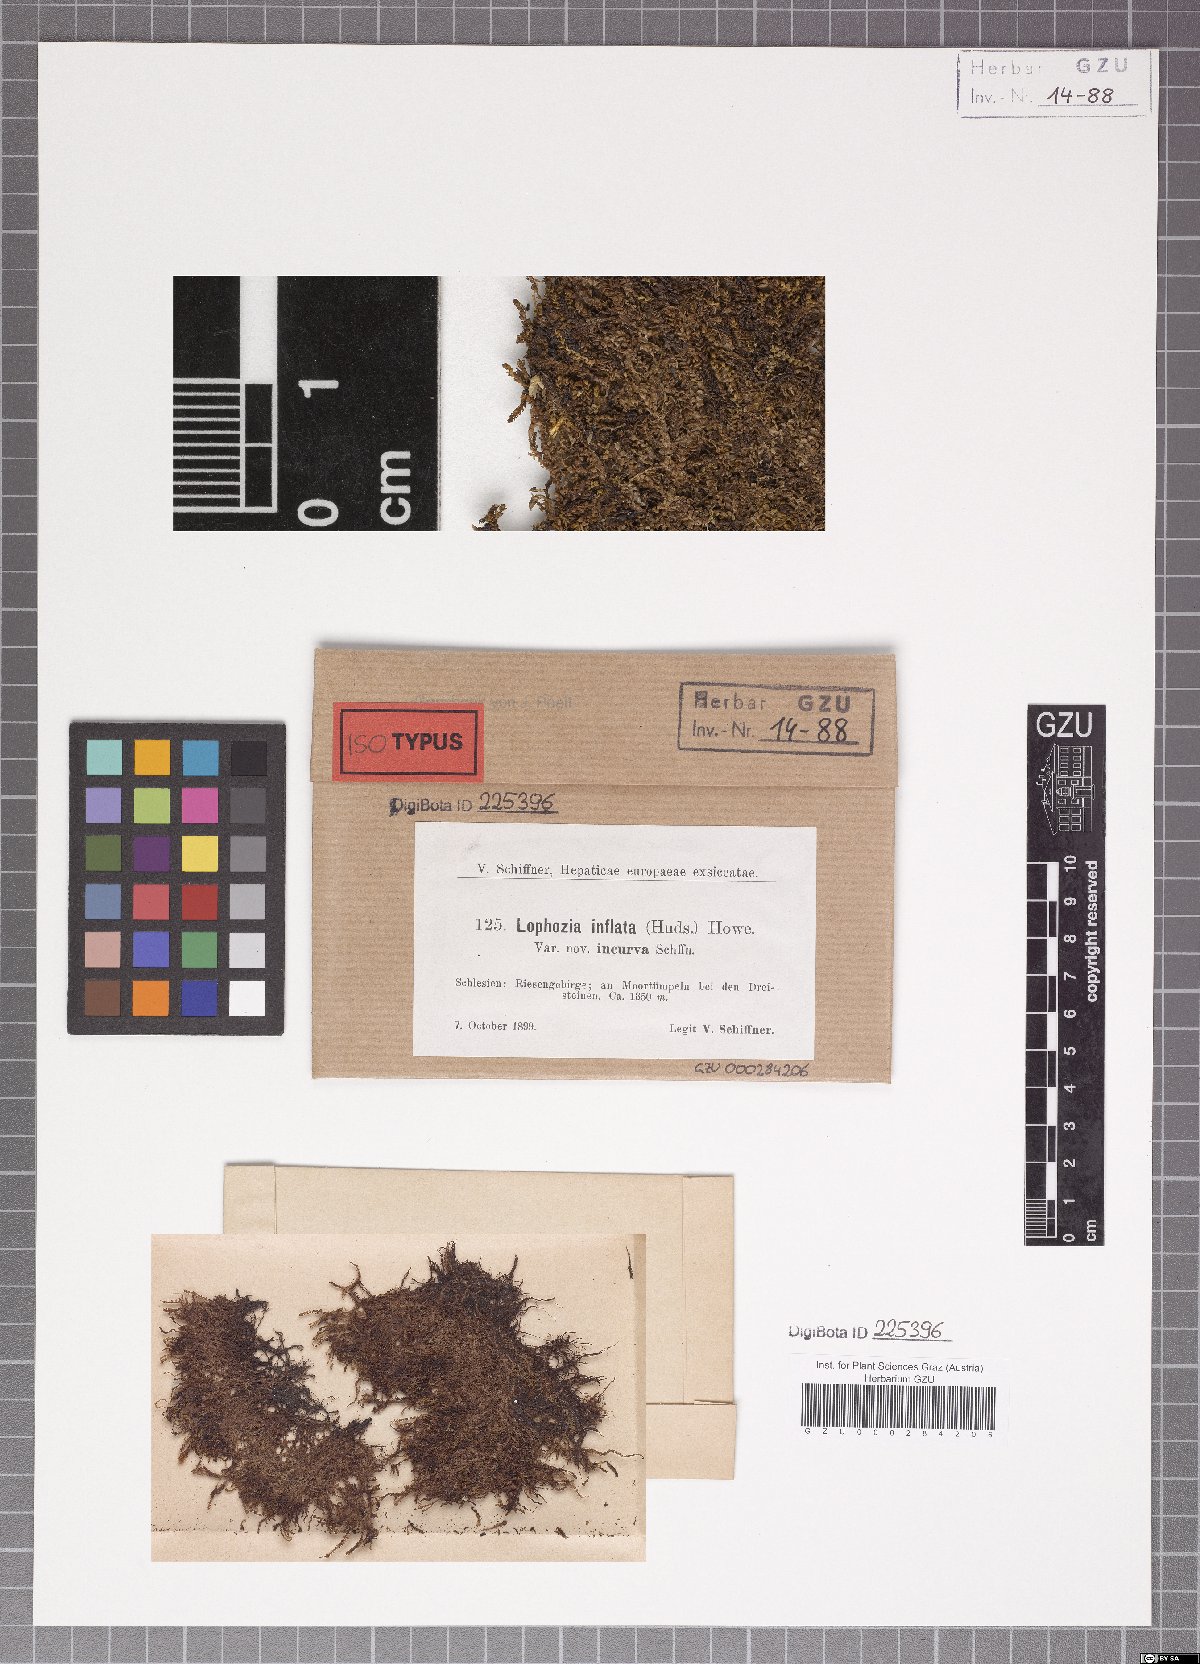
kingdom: Plantae
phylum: Marchantiophyta
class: Jungermanniopsida
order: Jungermanniales
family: Anastrophyllaceae
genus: Gymnocolea
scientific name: Gymnocolea inflata
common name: Inflated notchwort
